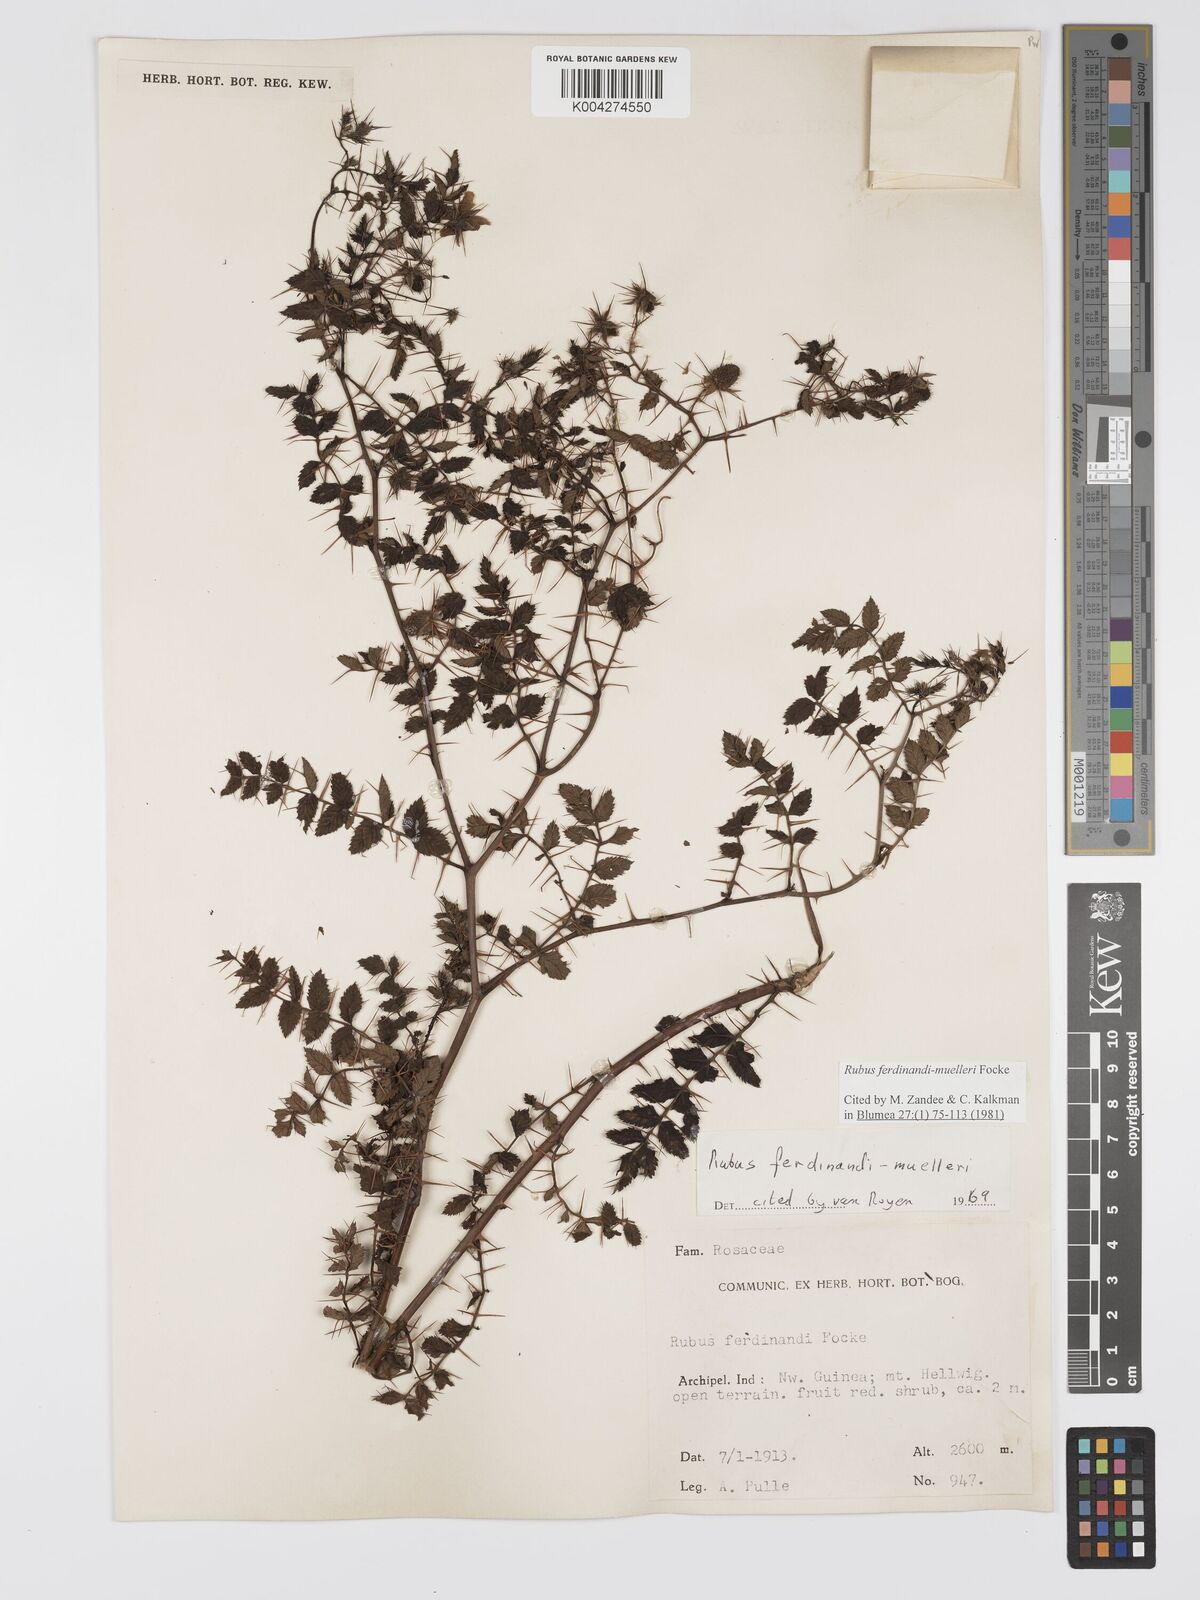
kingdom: Plantae
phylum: Tracheophyta
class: Magnoliopsida
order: Rosales
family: Rosaceae
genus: Rubus
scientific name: Rubus ferdinandimuelleri
